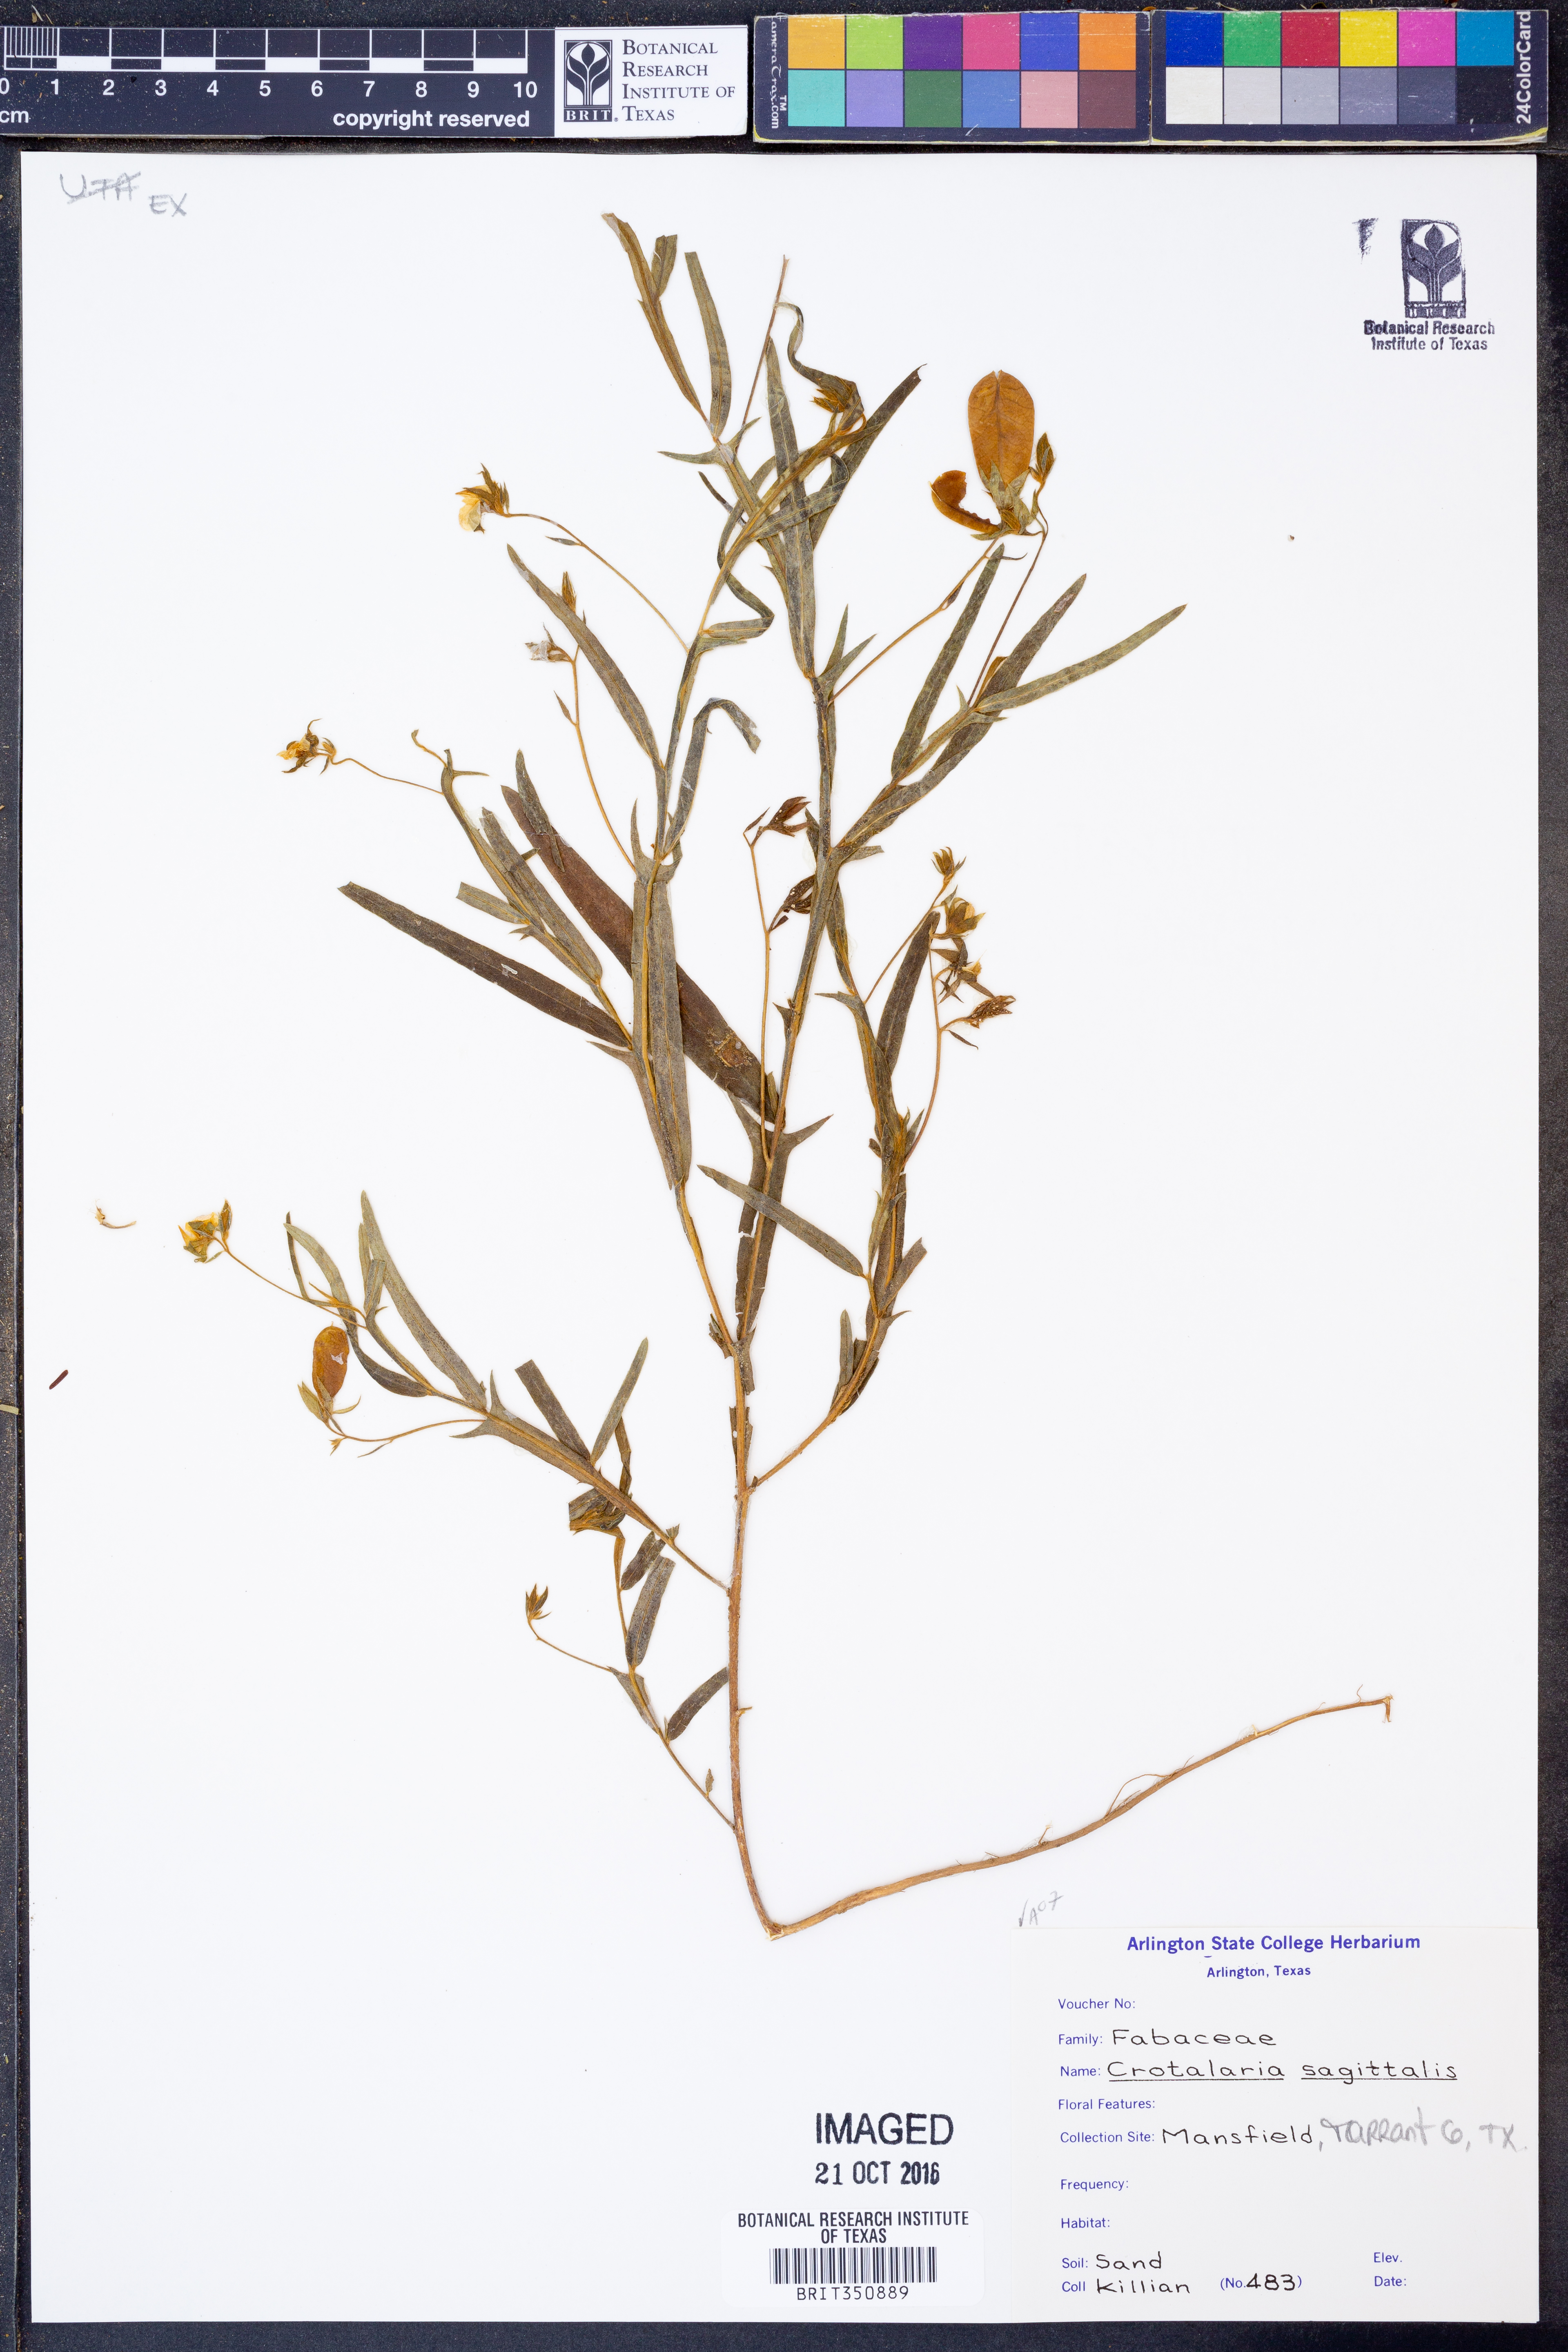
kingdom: Plantae
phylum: Tracheophyta
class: Magnoliopsida
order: Fabales
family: Fabaceae
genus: Crotalaria
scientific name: Crotalaria sagittalis
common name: Arrowhead rattlebox
